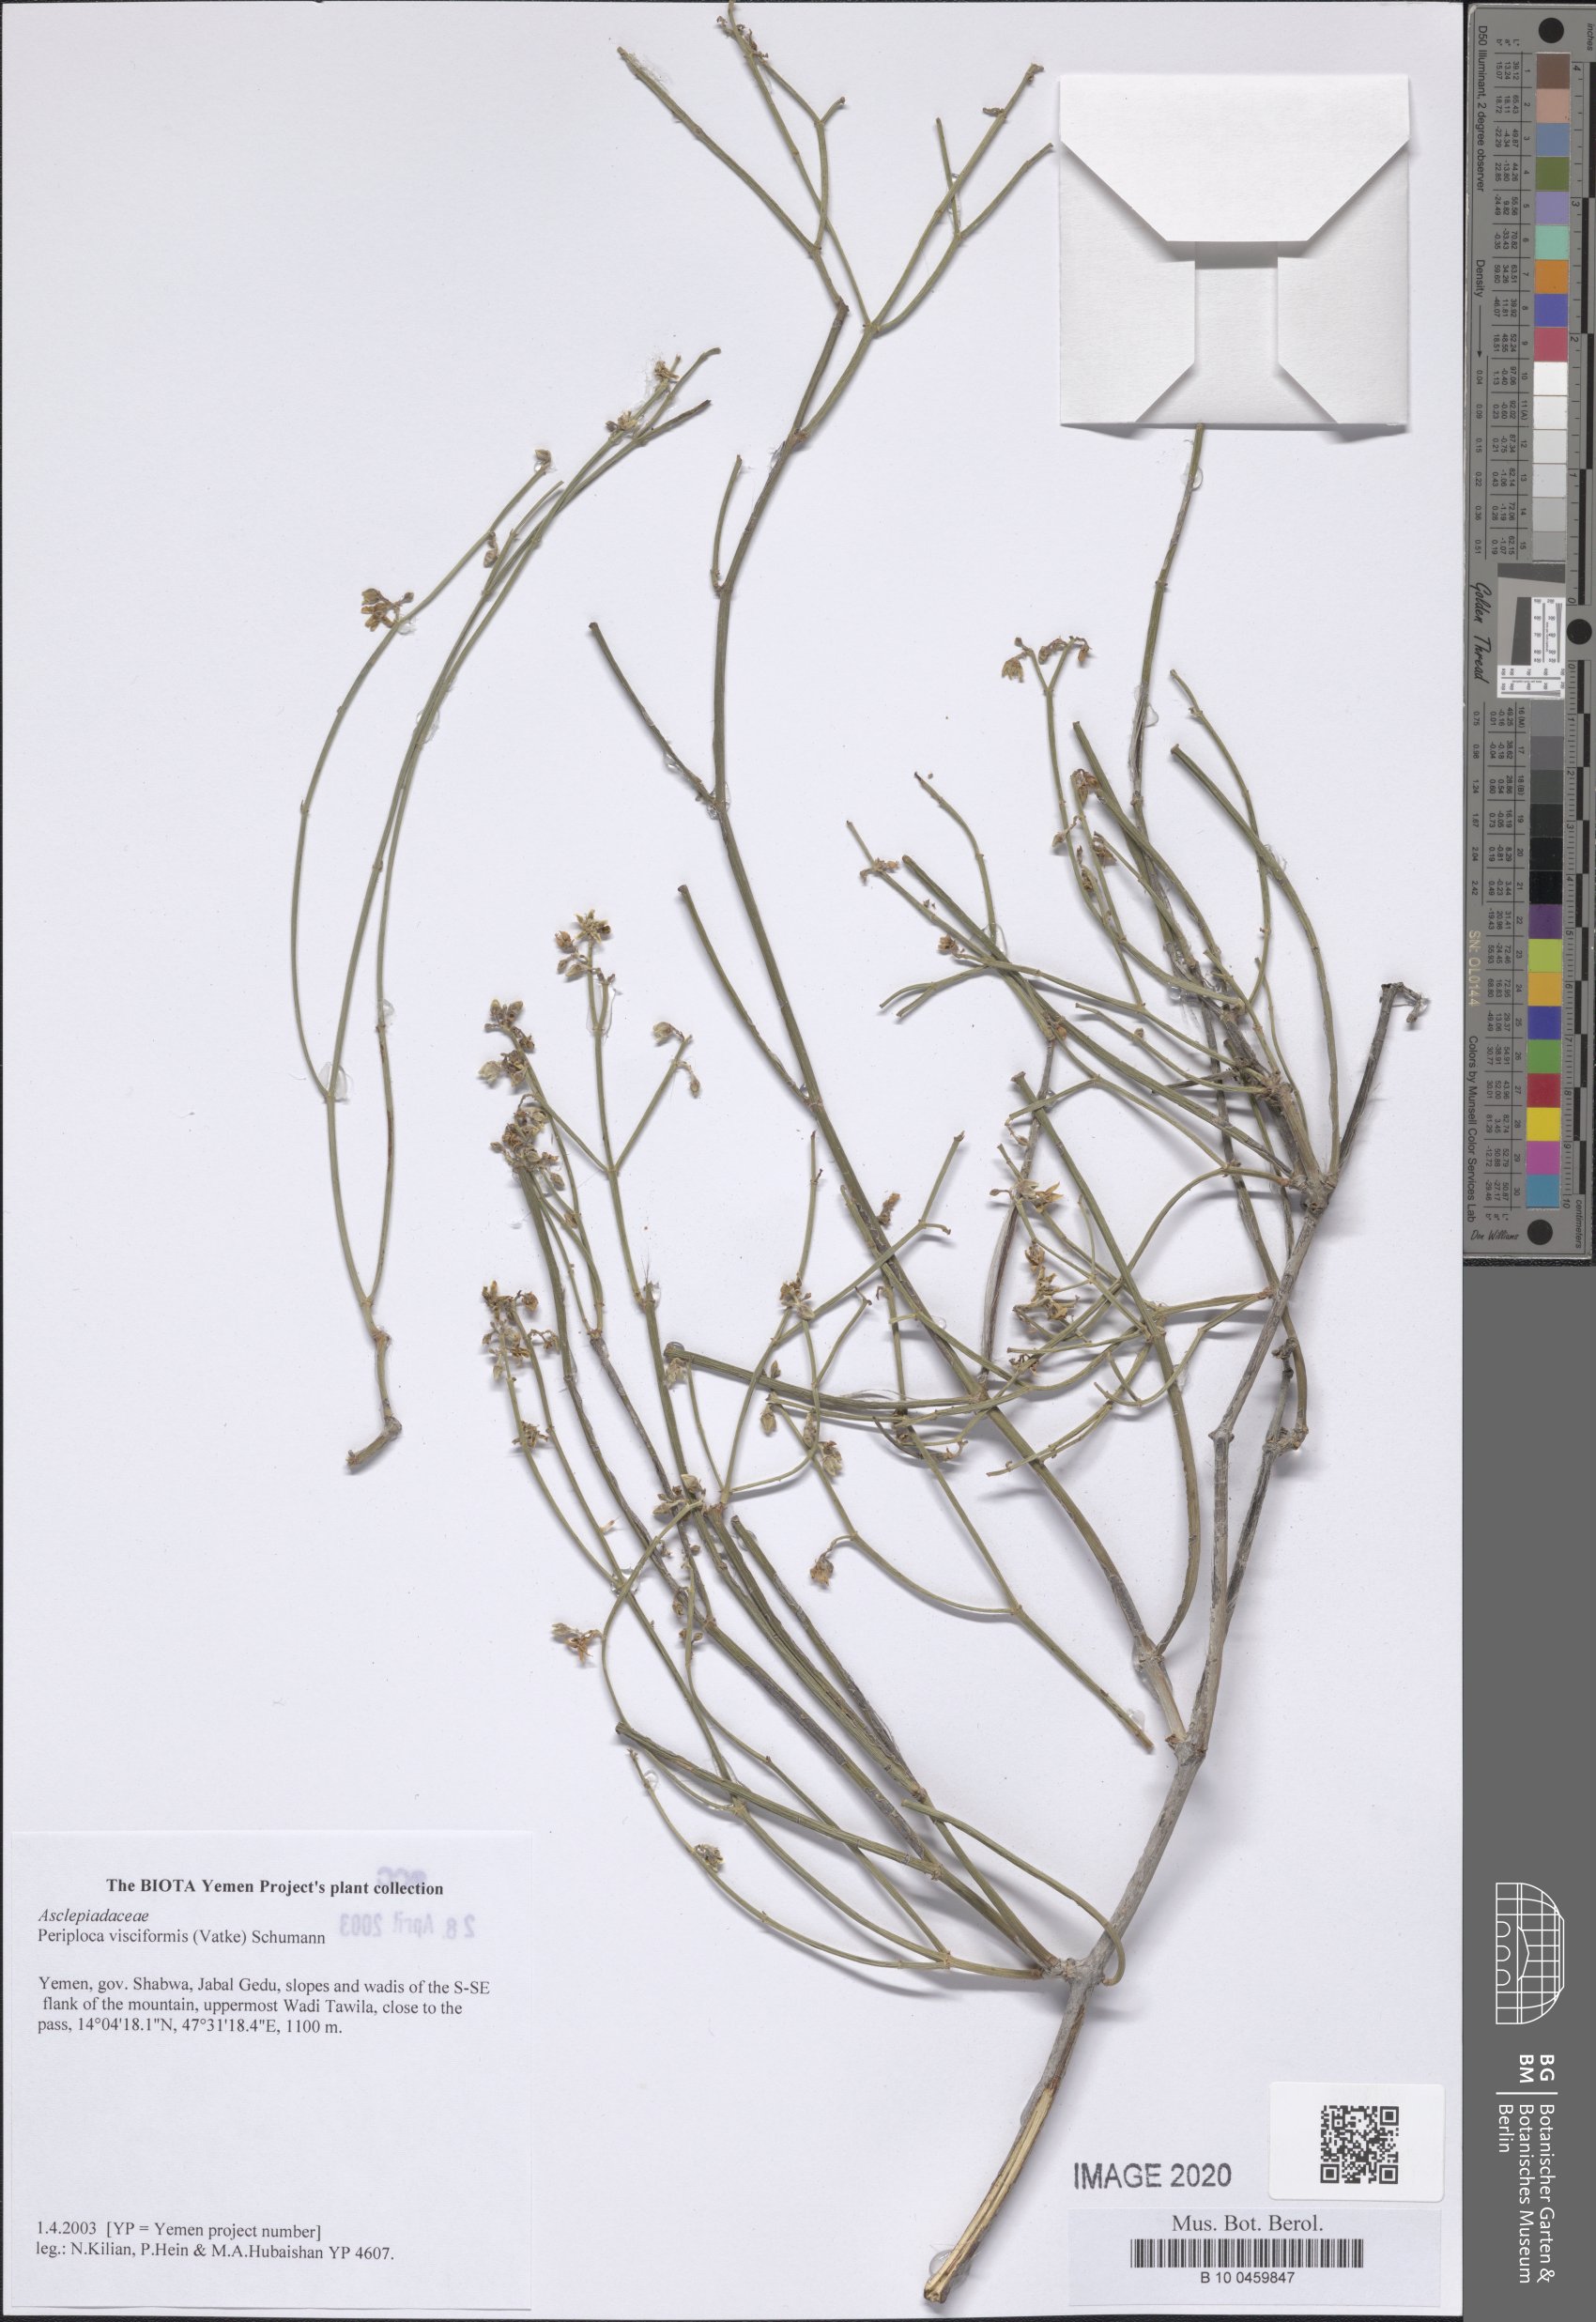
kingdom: Plantae
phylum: Tracheophyta
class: Magnoliopsida
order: Gentianales
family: Apocynaceae
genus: Periploca
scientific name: Periploca visciformis
